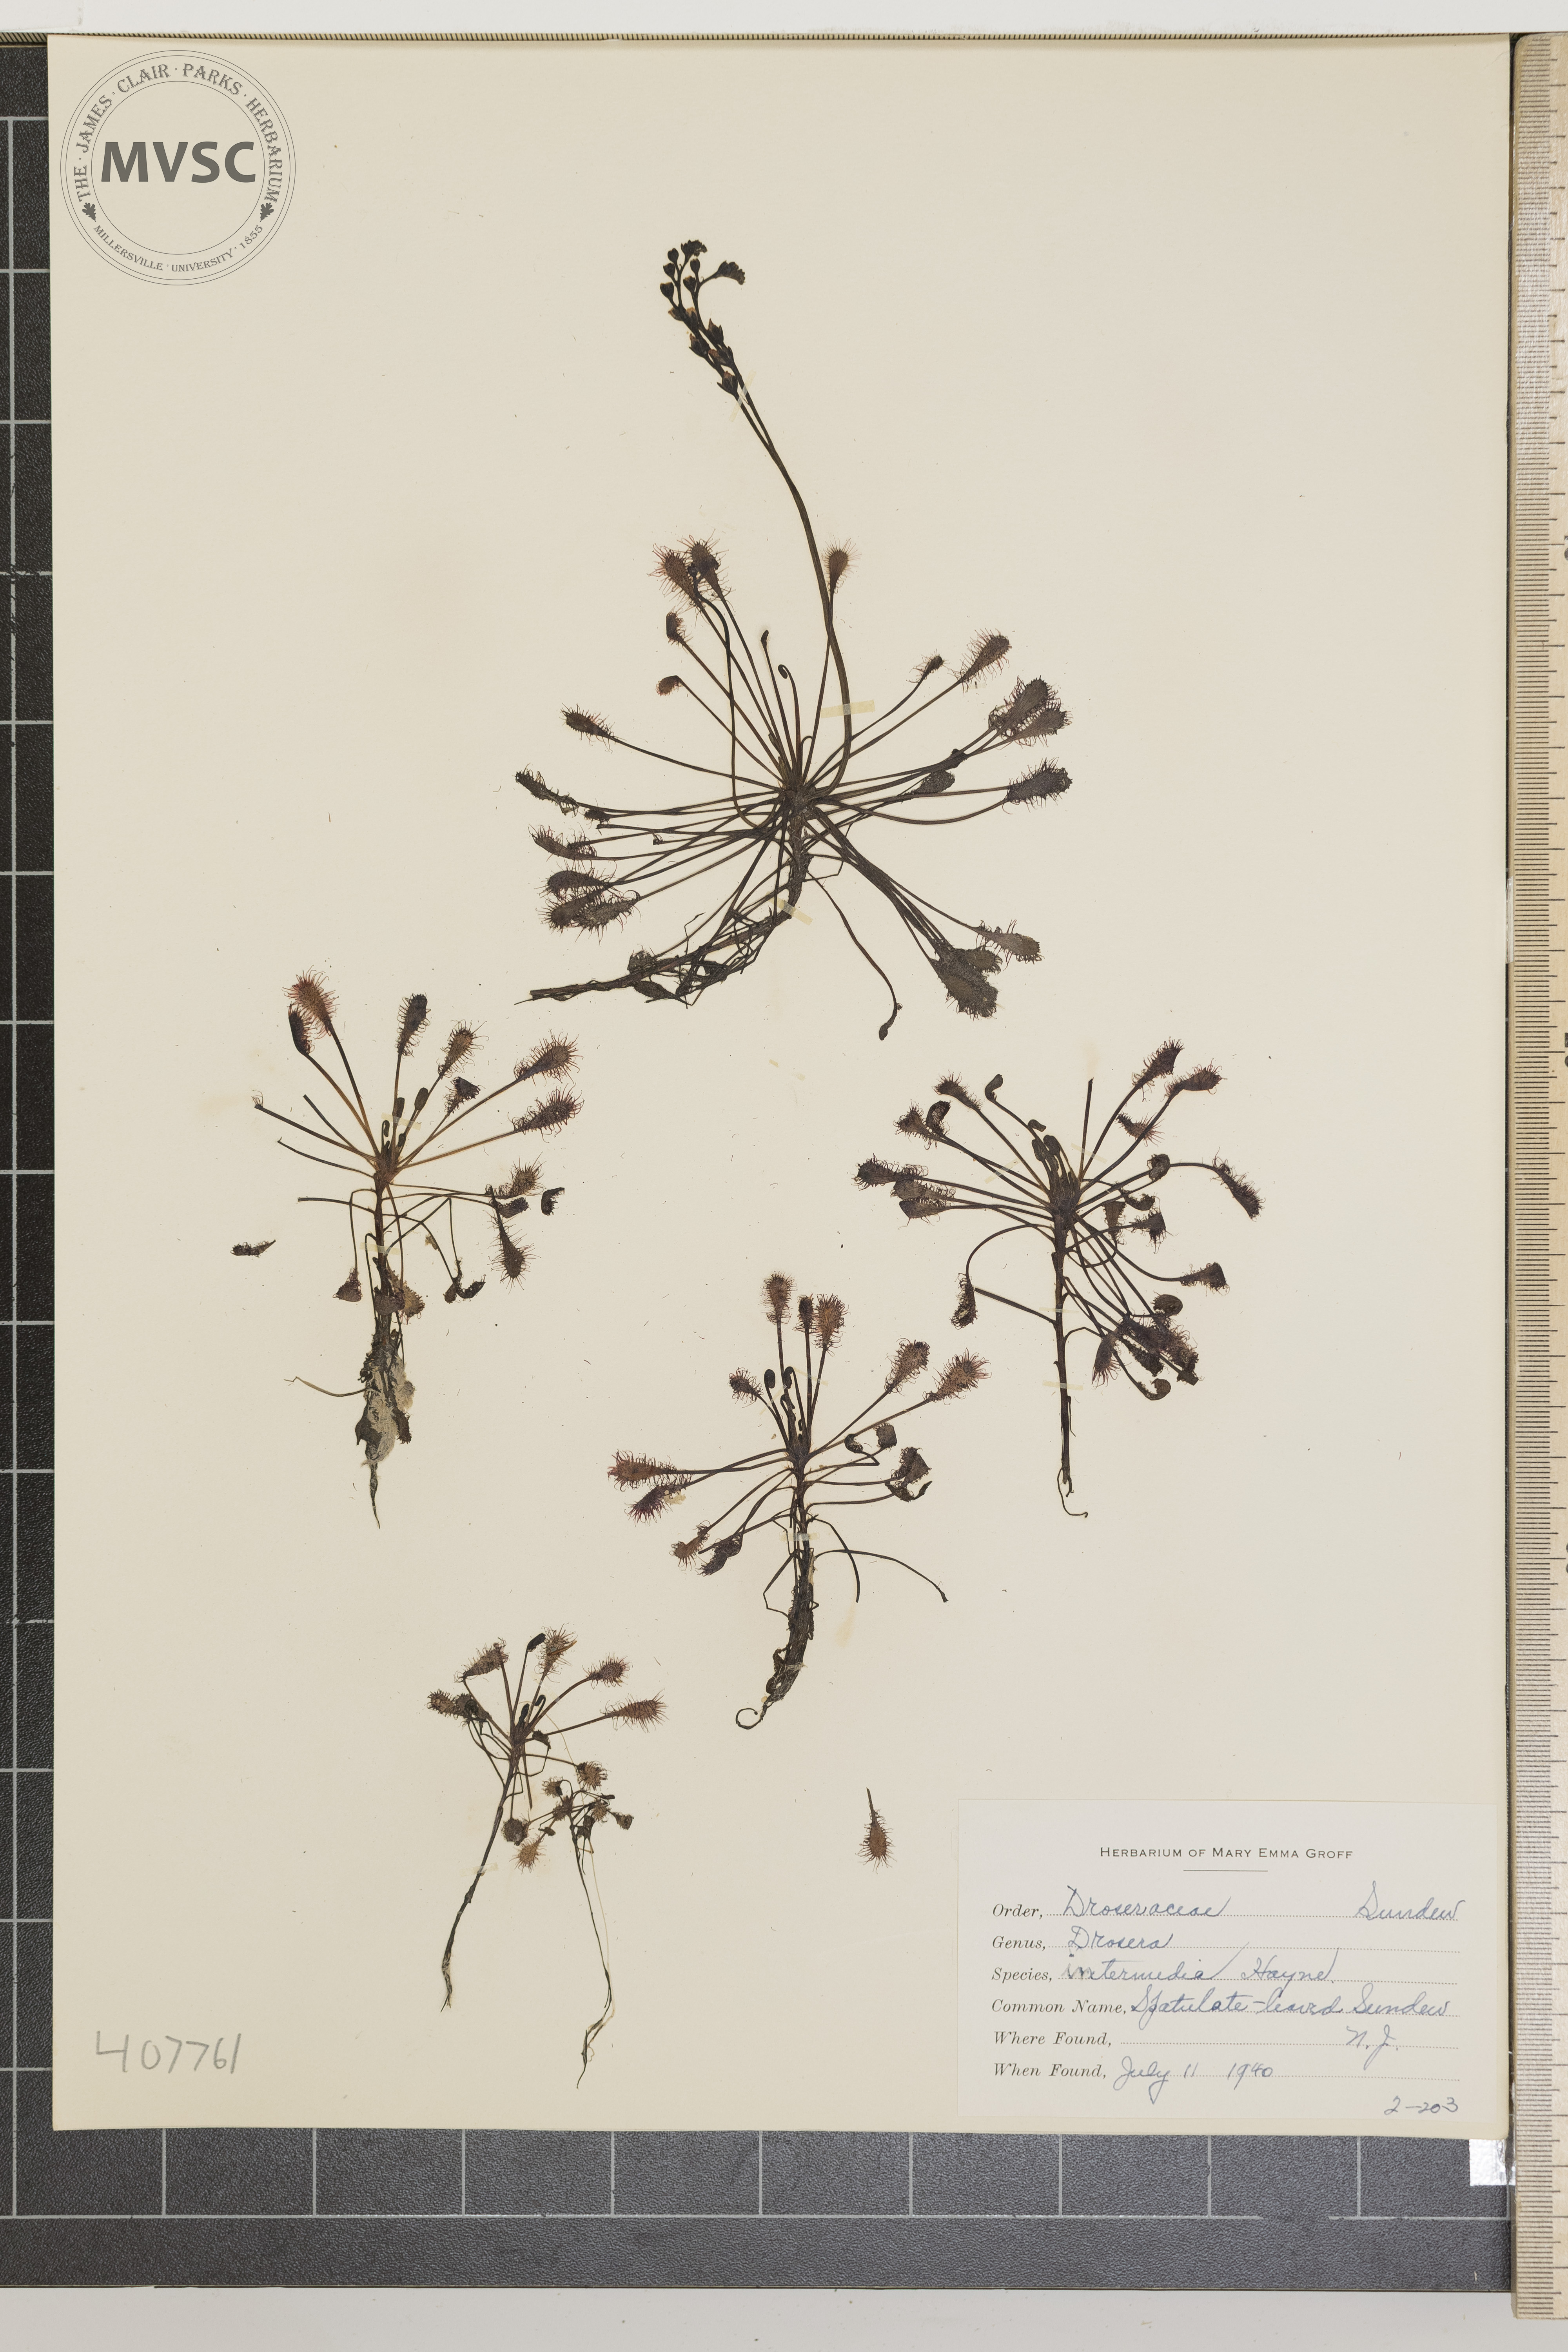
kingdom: Plantae
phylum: Tracheophyta
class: Magnoliopsida
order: Caryophyllales
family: Droseraceae
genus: Drosera
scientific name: Drosera intermedia
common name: Spatulate-leaved Sundew
